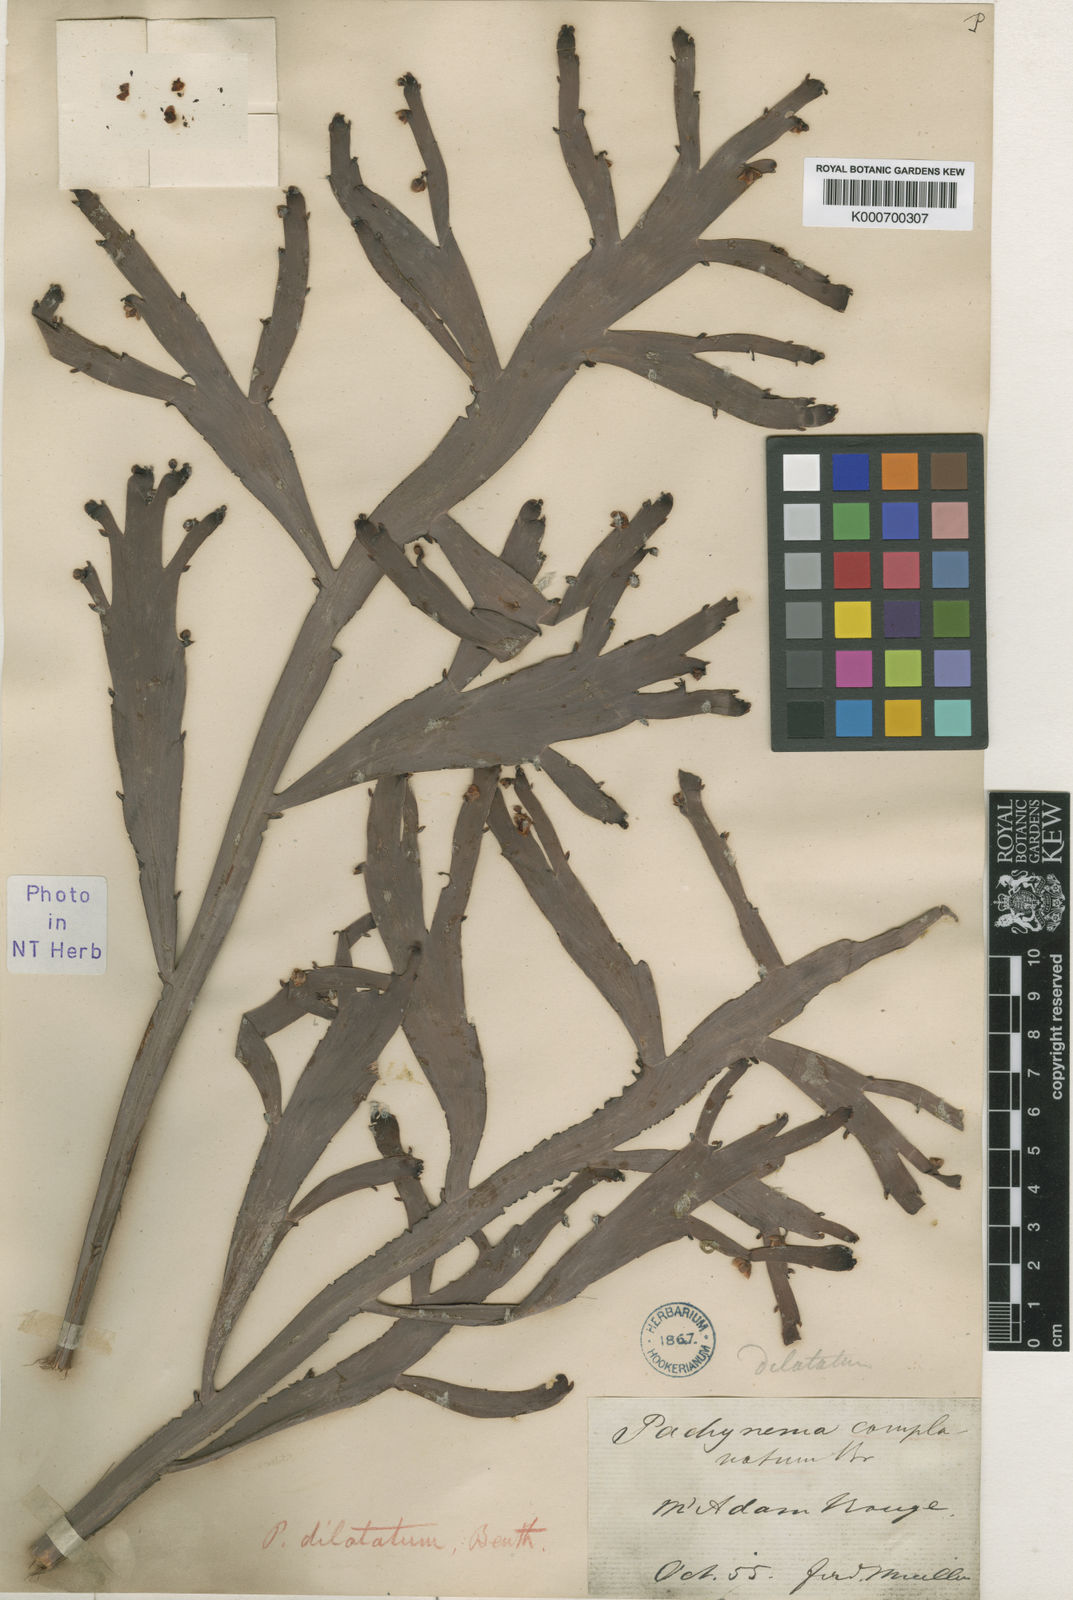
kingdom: Plantae
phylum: Tracheophyta
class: Magnoliopsida
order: Dilleniales
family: Dilleniaceae
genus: Hibbertia
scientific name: Hibbertia dilatata
